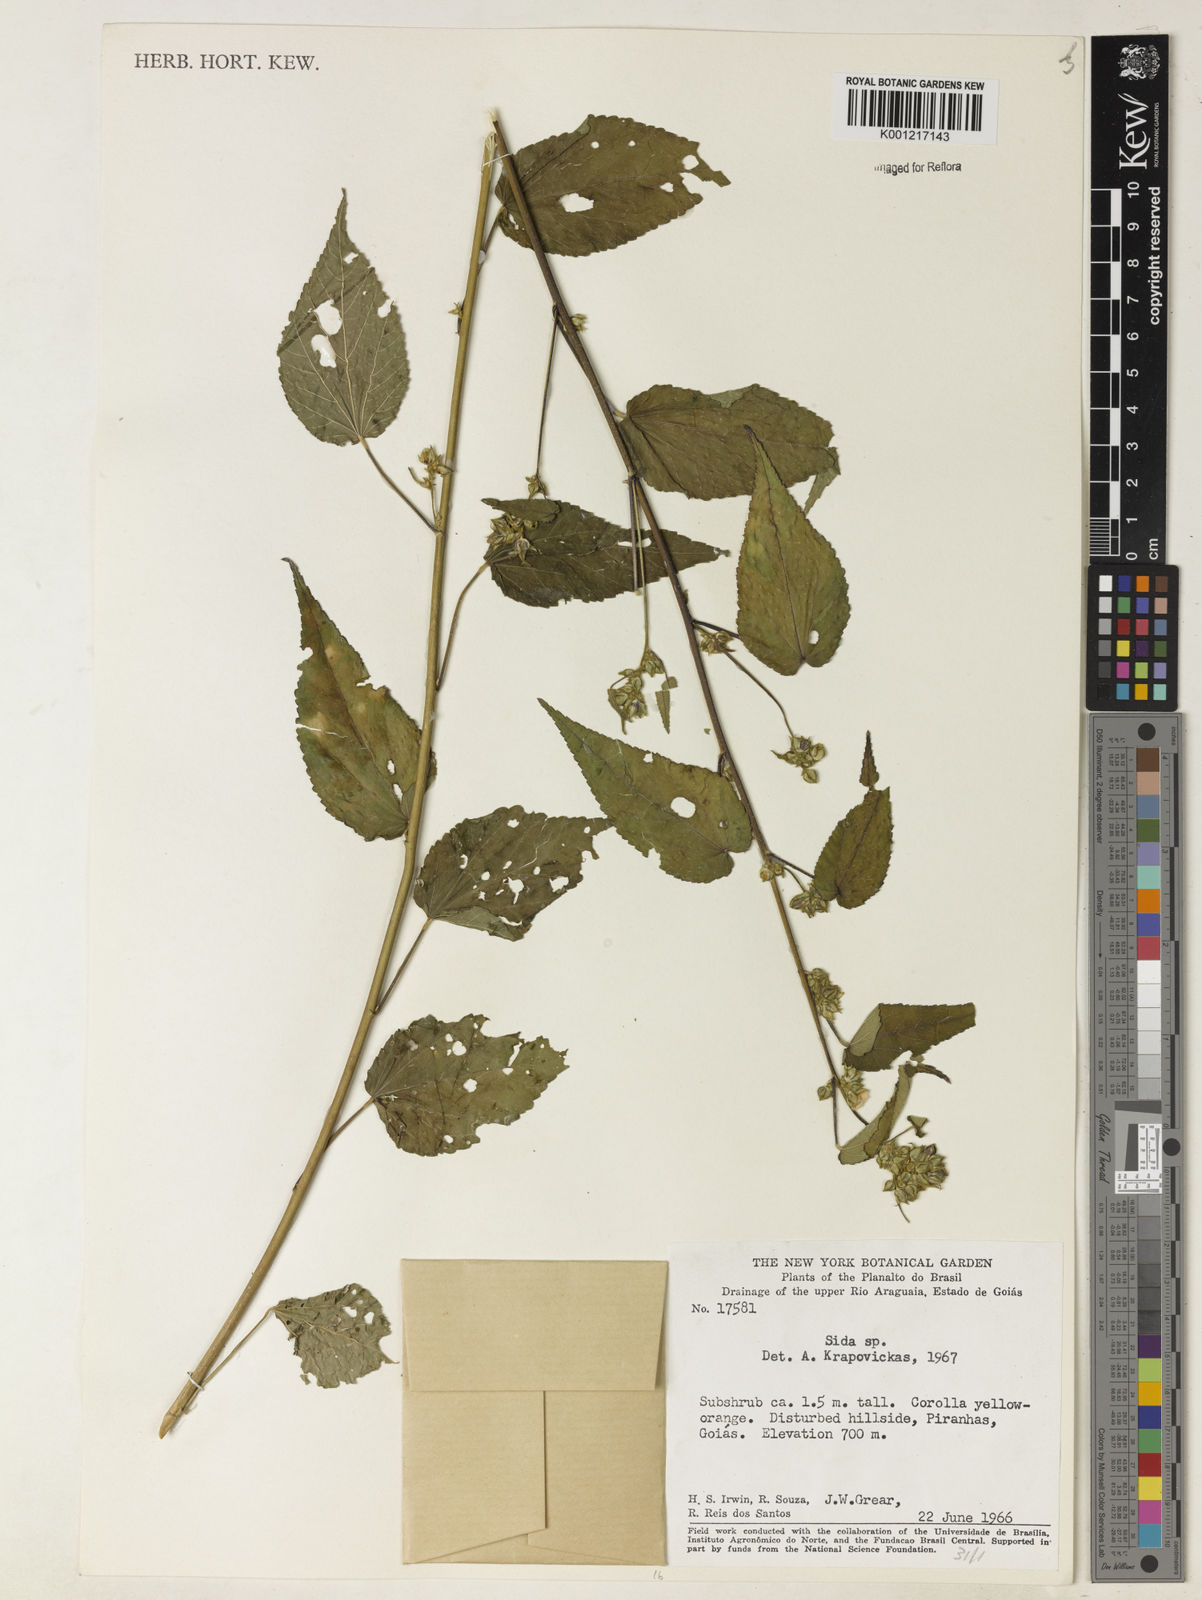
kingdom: Plantae
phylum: Tracheophyta
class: Magnoliopsida
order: Malvales
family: Malvaceae
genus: Sida
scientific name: Sida
